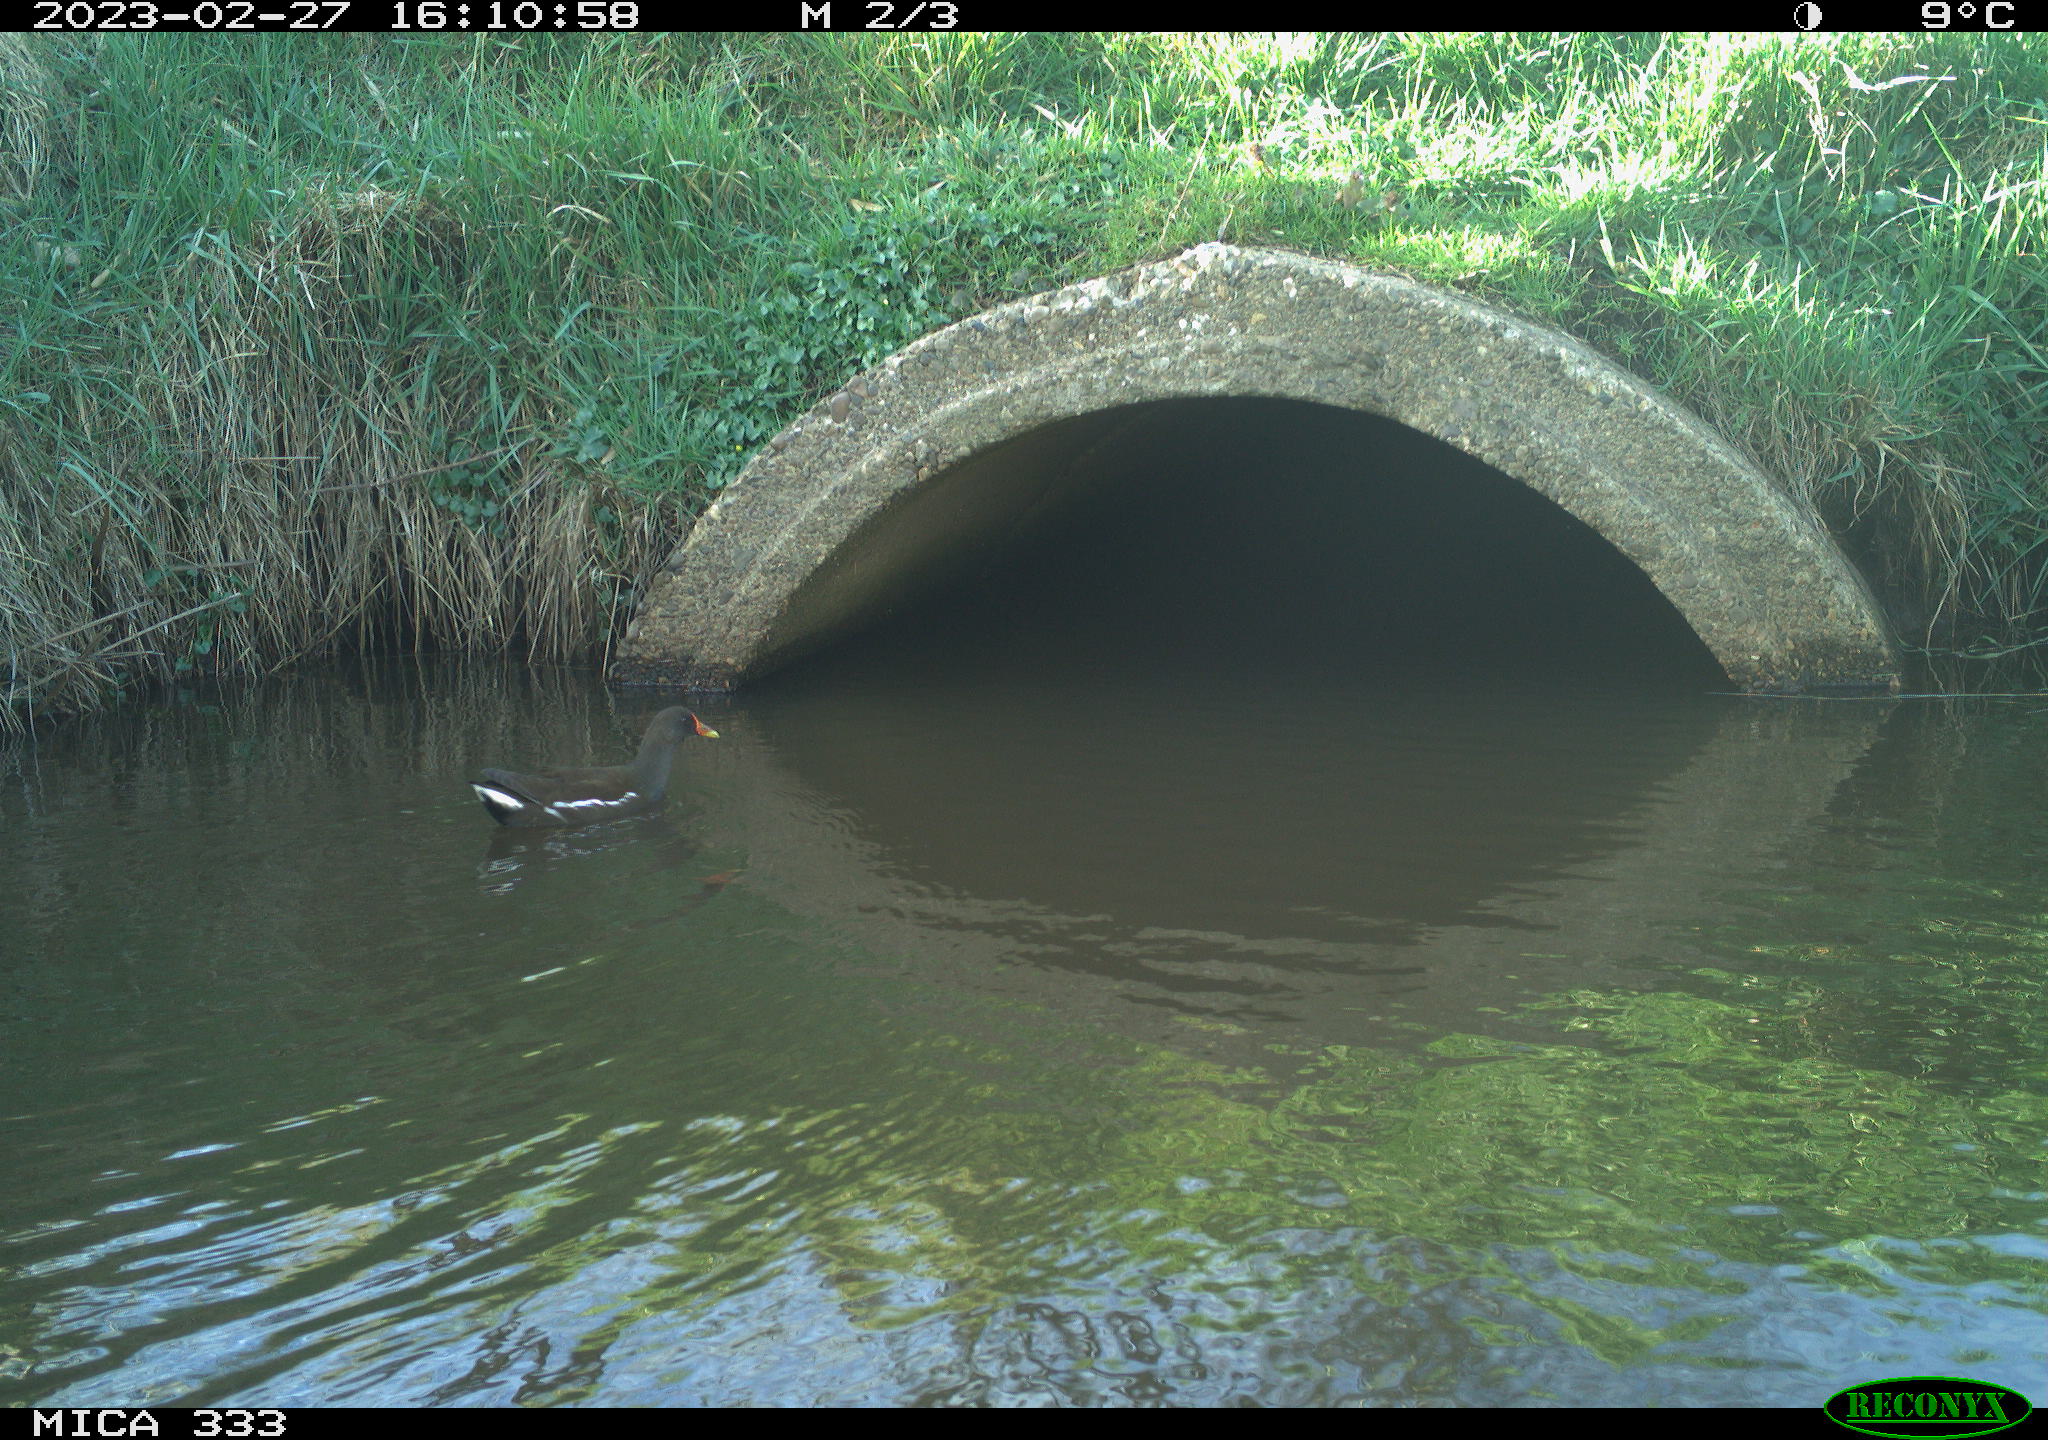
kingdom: Animalia
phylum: Chordata
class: Aves
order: Gruiformes
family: Rallidae
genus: Gallinula
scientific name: Gallinula chloropus
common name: Common moorhen
